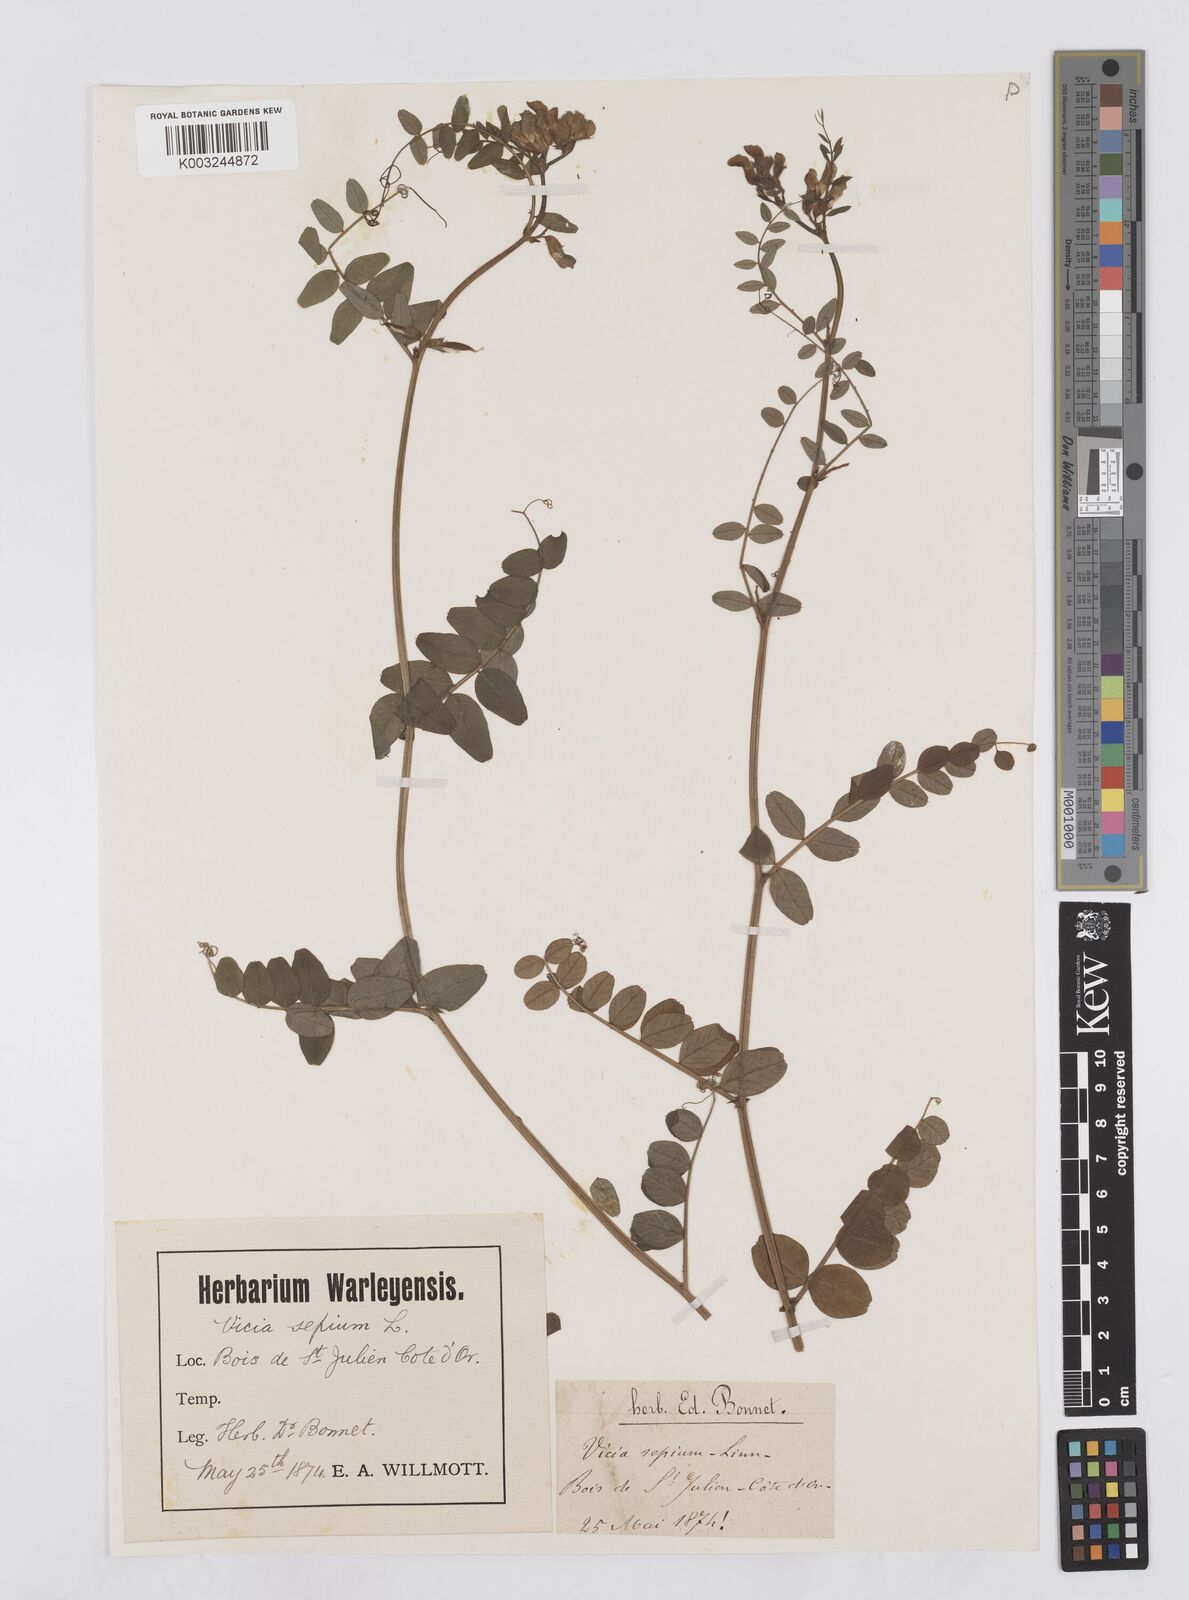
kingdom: Plantae
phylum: Tracheophyta
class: Magnoliopsida
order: Fabales
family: Fabaceae
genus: Vicia
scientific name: Vicia sepium
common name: Bush vetch
